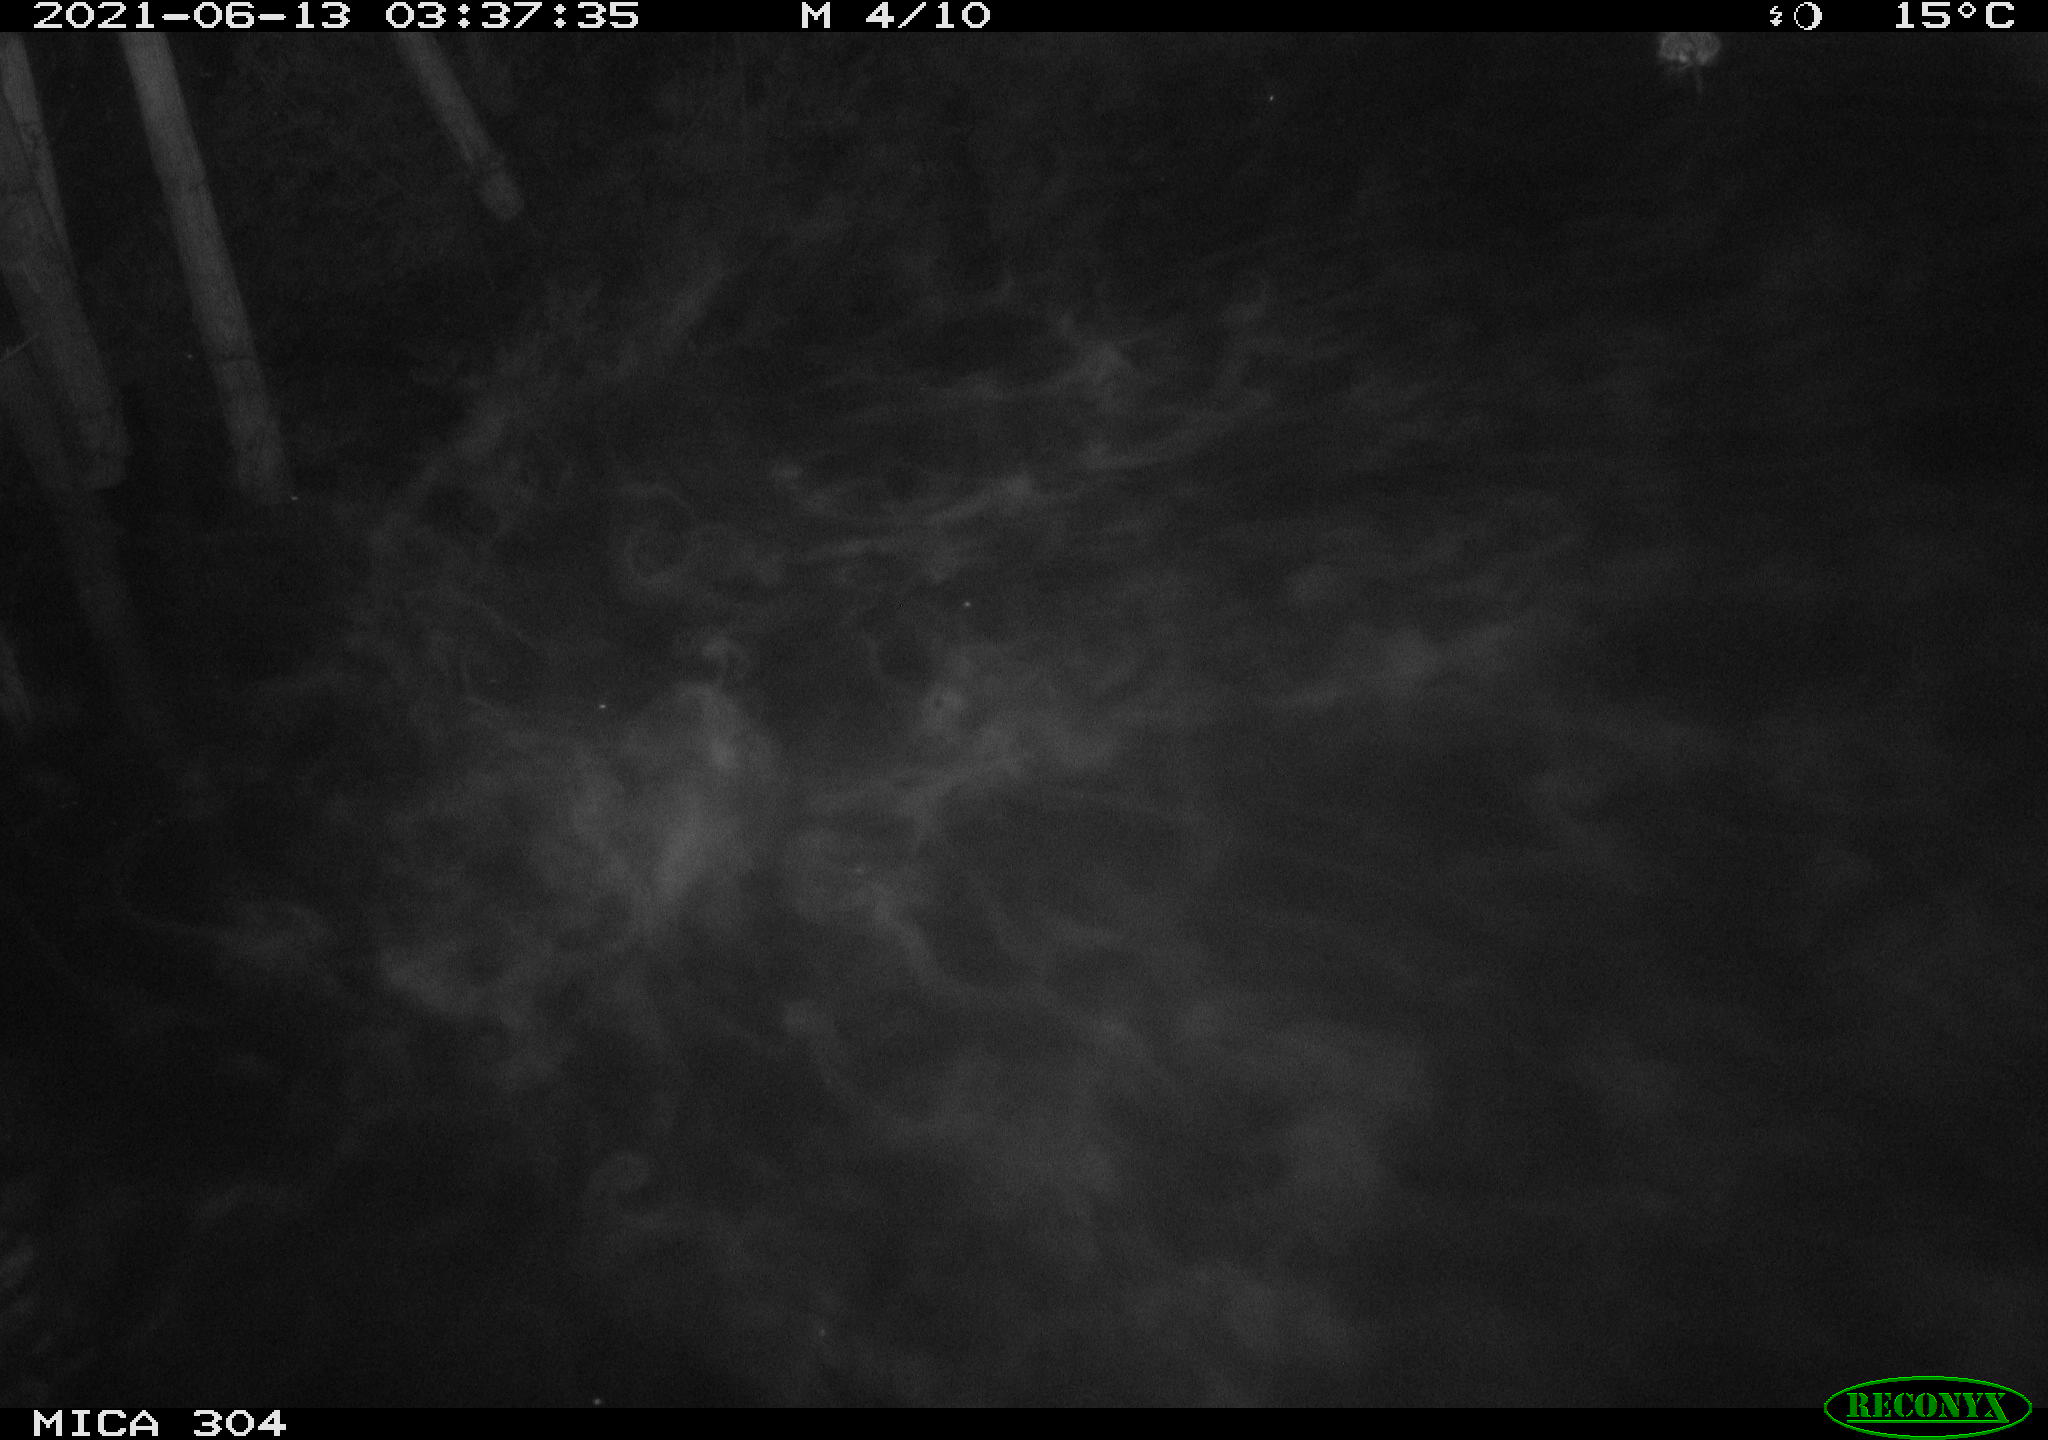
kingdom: Animalia
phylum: Chordata
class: Mammalia
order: Rodentia
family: Cricetidae
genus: Ondatra
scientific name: Ondatra zibethicus
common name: Muskrat
